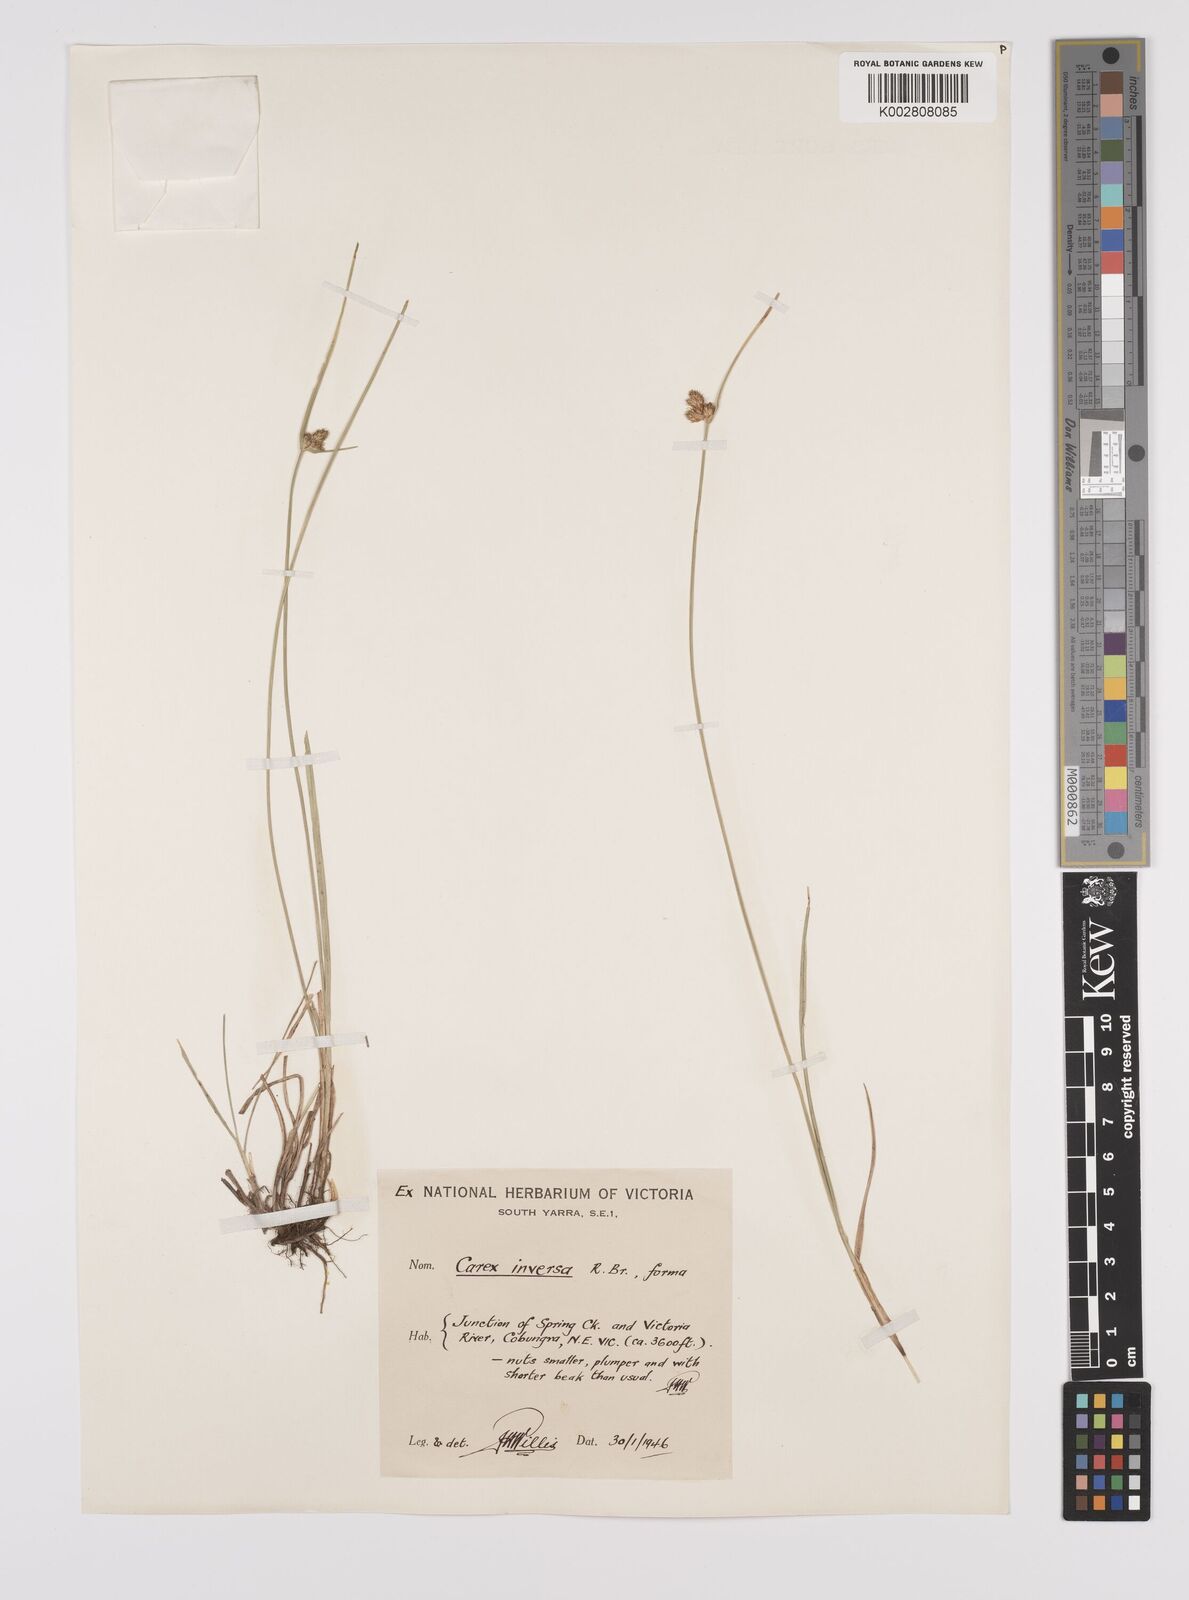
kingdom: Plantae
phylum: Tracheophyta
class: Liliopsida
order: Poales
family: Cyperaceae
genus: Carex
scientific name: Carex inversa
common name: Knob sedge
